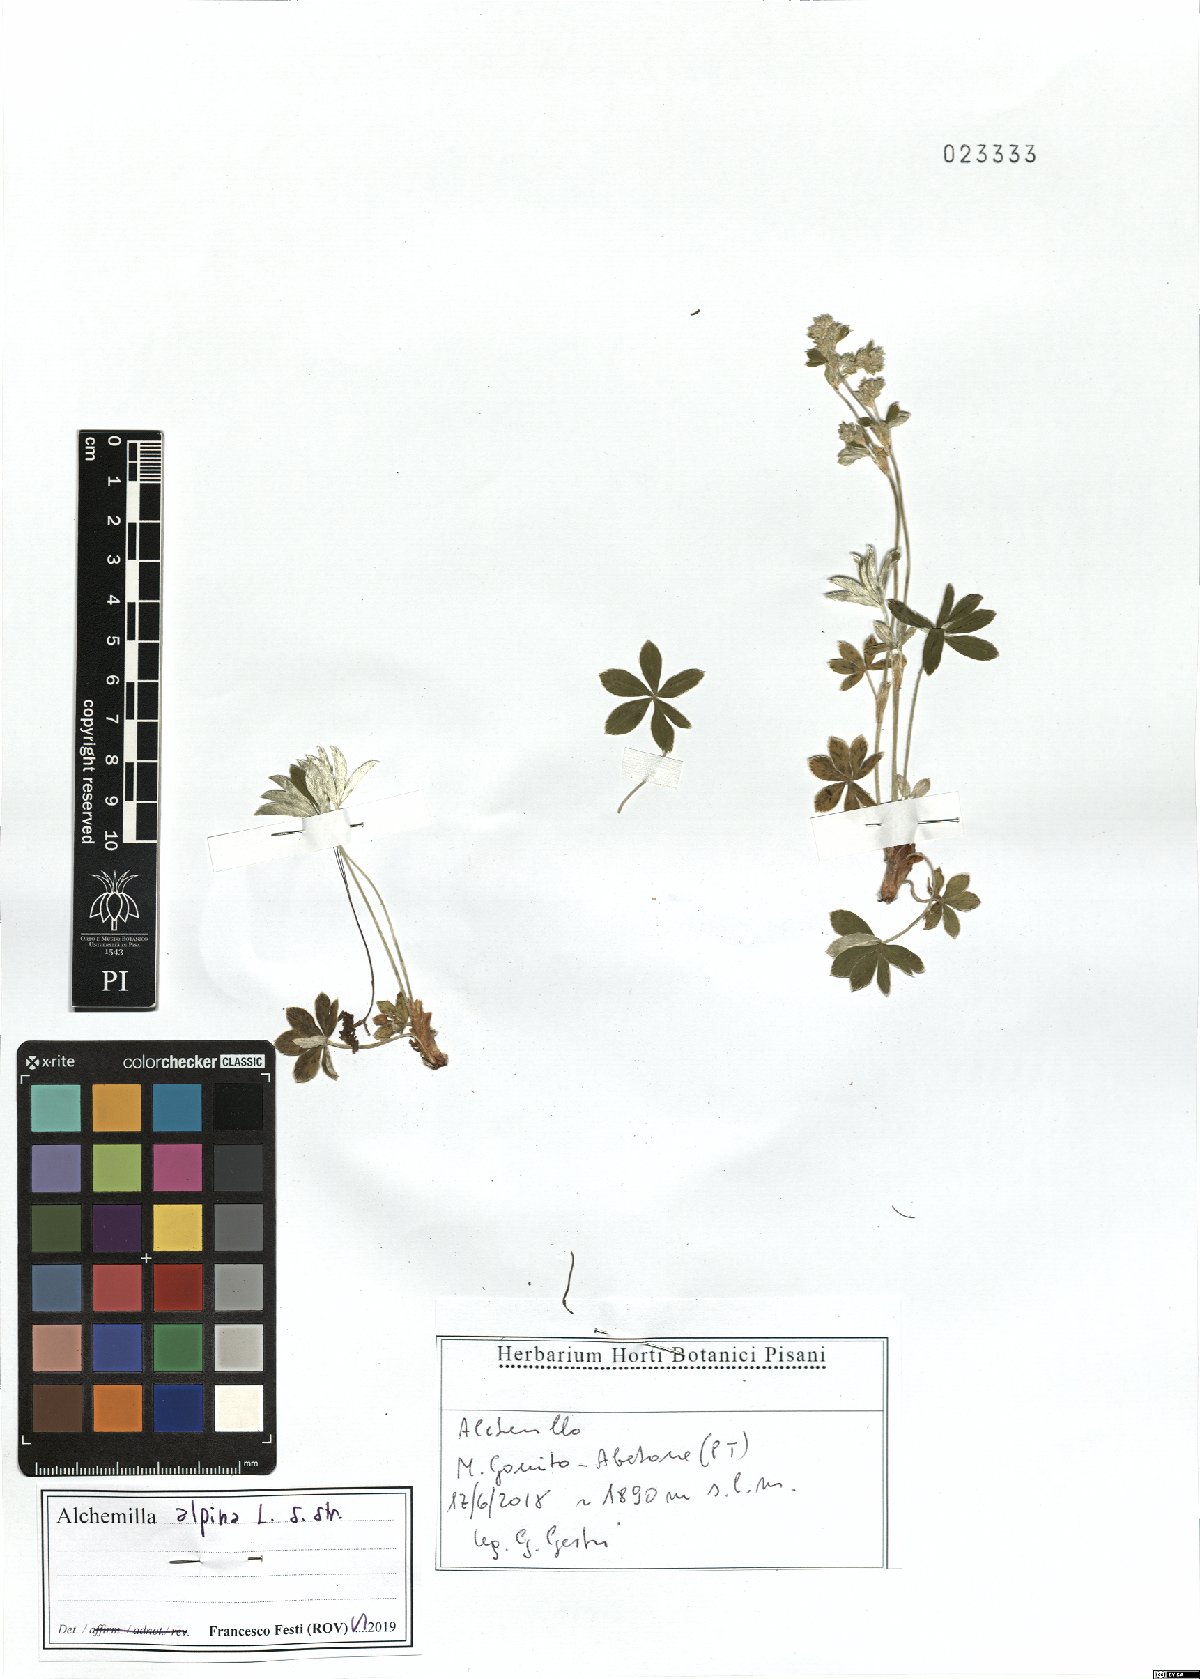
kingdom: Plantae
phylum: Tracheophyta
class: Magnoliopsida
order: Rosales
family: Rosaceae
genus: Alchemilla
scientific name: Alchemilla alpina
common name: Alpine lady's-mantle
